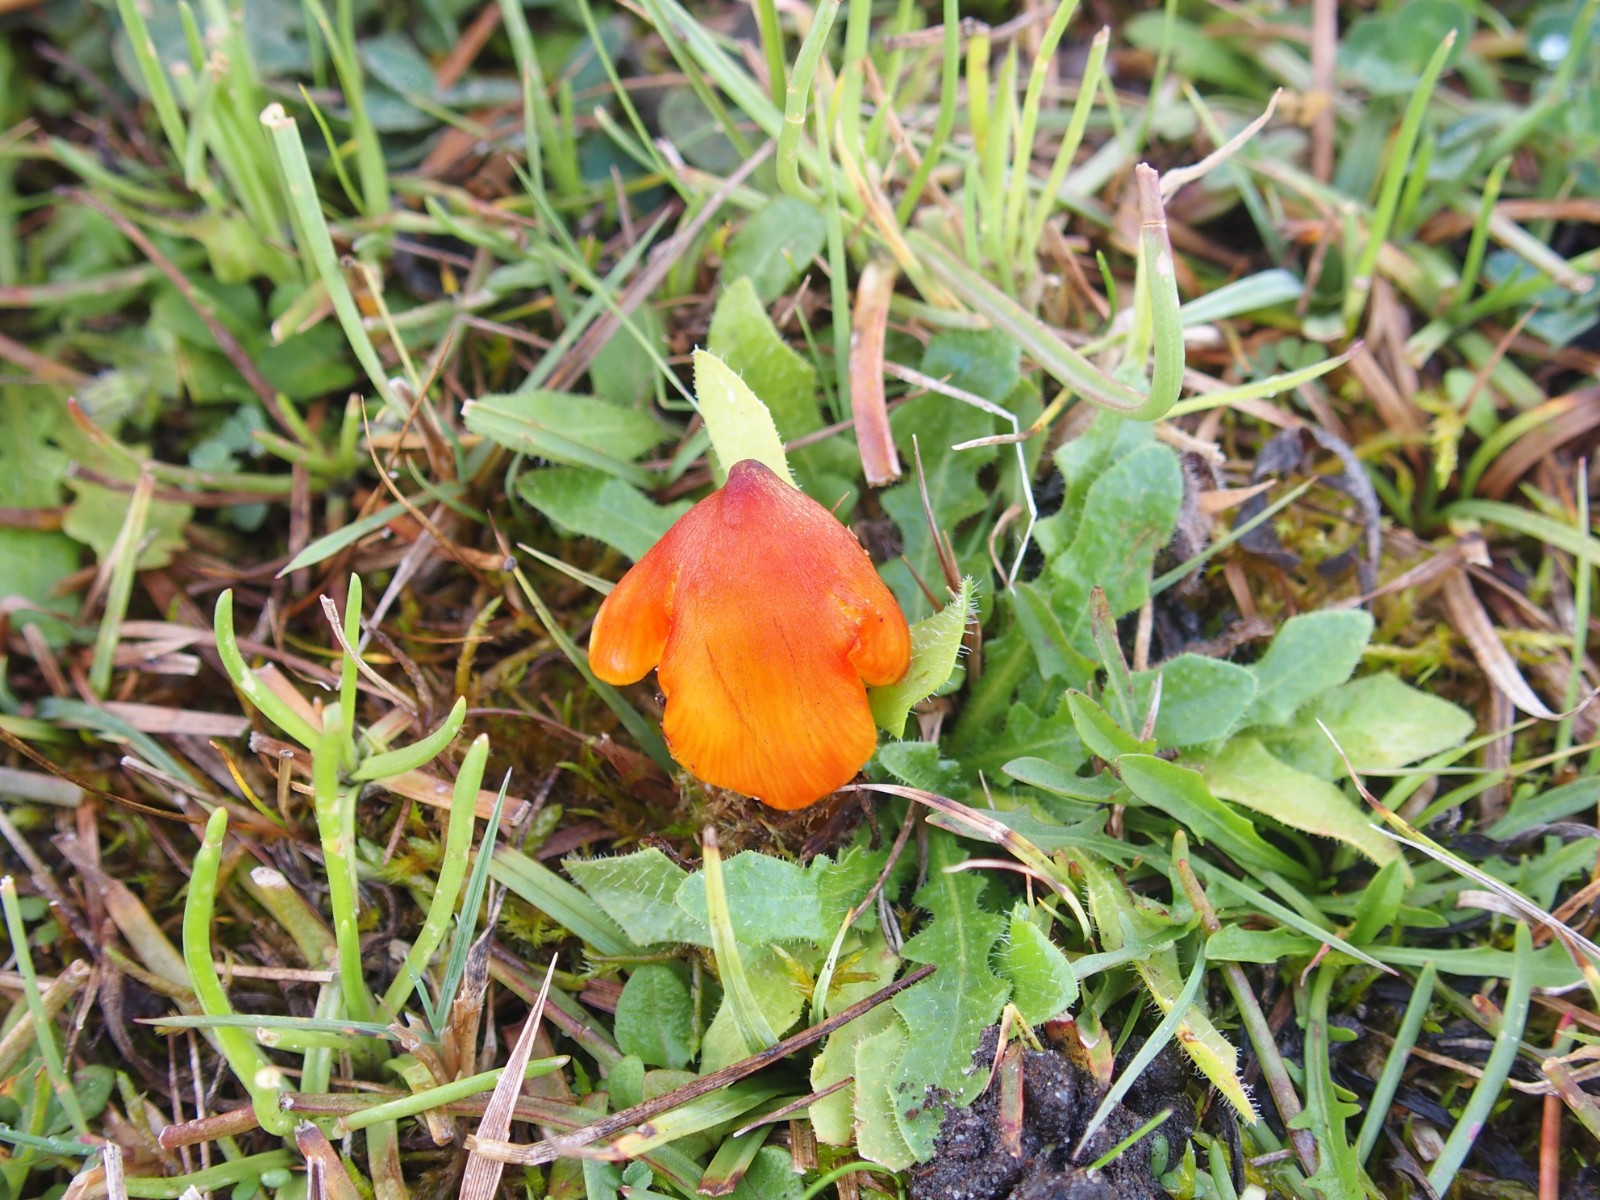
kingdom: Fungi
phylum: Basidiomycota
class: Agaricomycetes
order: Agaricales
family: Hygrophoraceae
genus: Hygrocybe
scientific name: Hygrocybe conica
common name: kegle-vokshat
